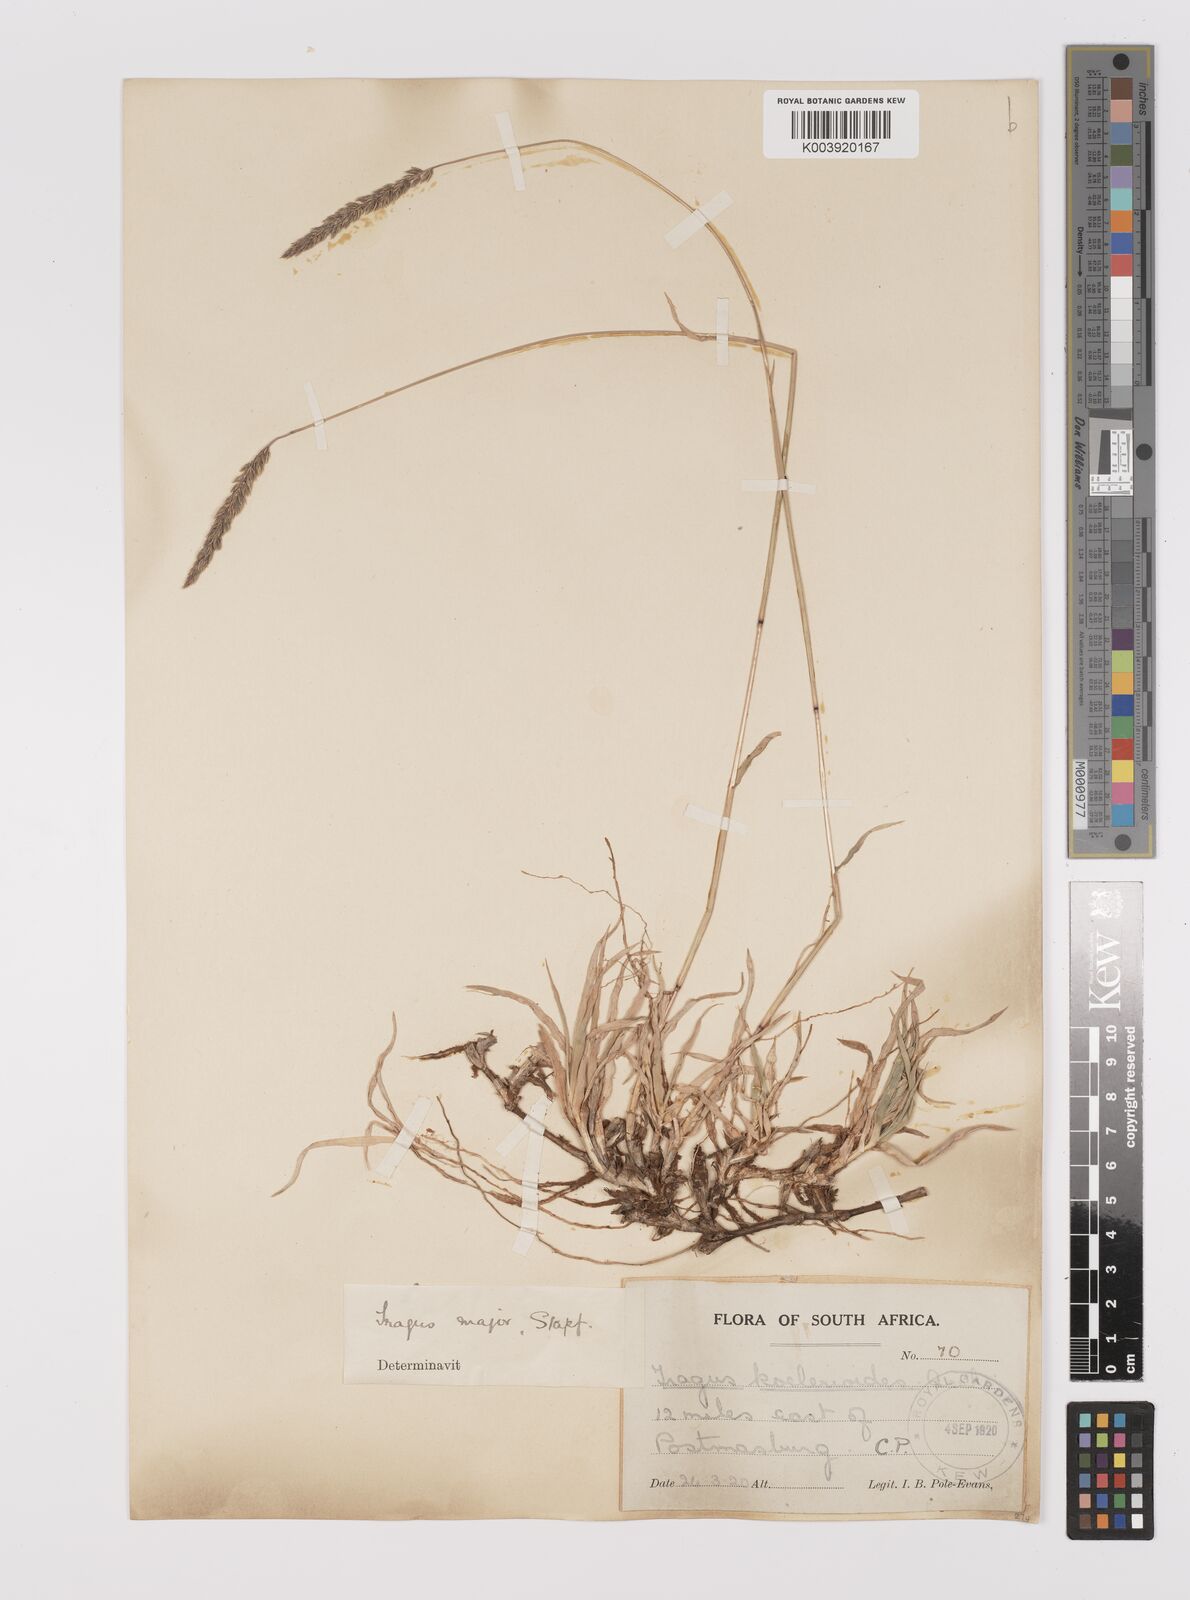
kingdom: Plantae
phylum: Tracheophyta
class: Liliopsida
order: Poales
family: Poaceae
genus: Tragus
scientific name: Tragus koelerioides
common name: Creeping carrot-seed grass
